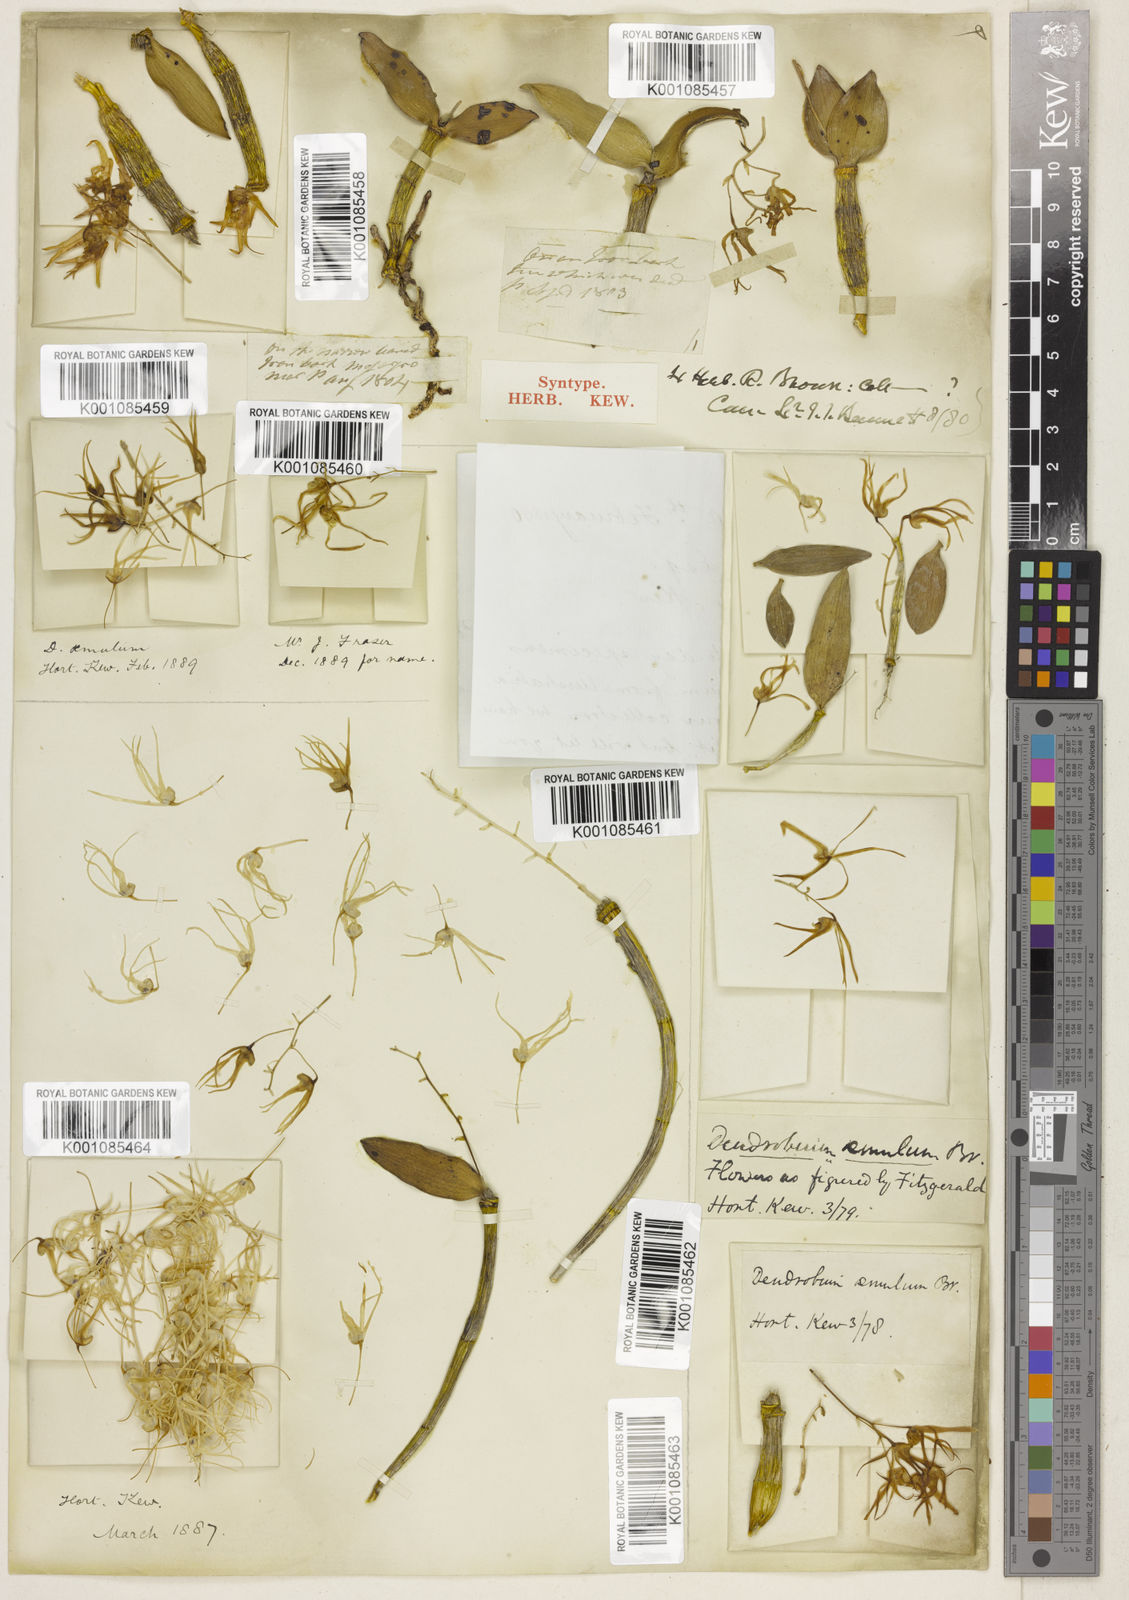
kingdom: Plantae
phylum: Tracheophyta
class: Liliopsida
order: Asparagales
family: Orchidaceae
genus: Dendrobium
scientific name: Dendrobium aemulum
